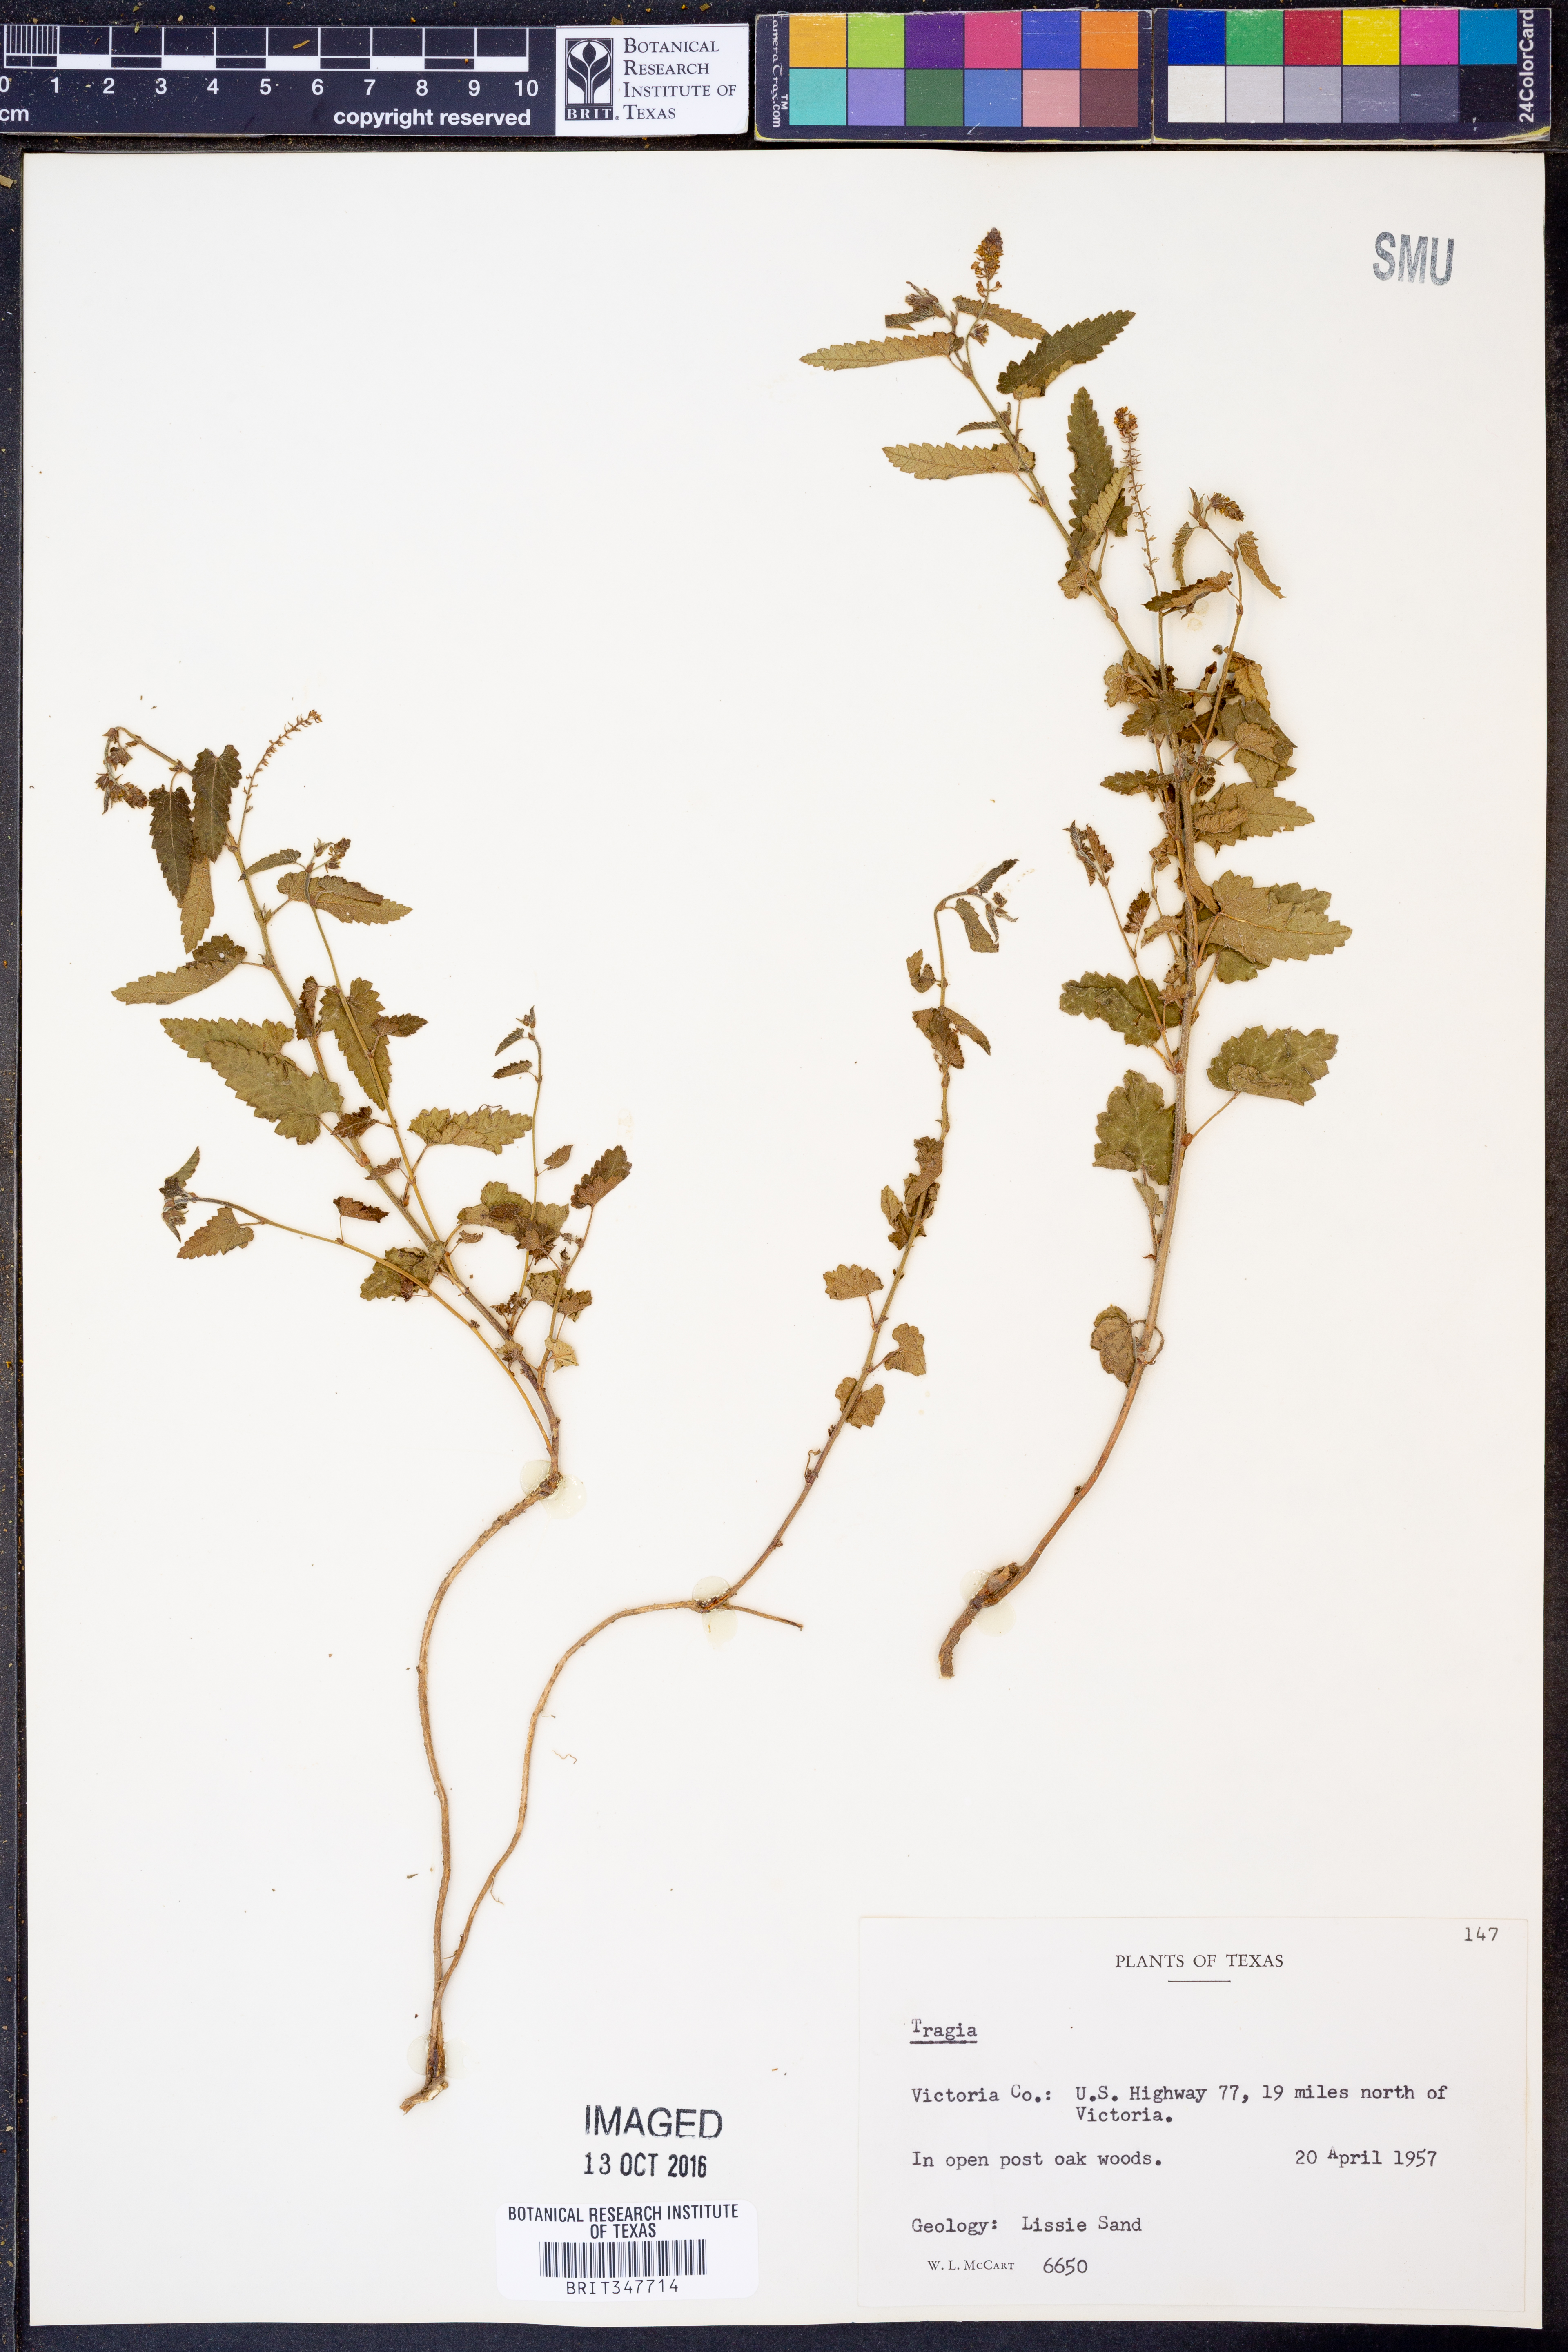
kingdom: Plantae
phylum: Tracheophyta
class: Magnoliopsida
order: Malpighiales
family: Euphorbiaceae
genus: Tragia
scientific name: Tragia
